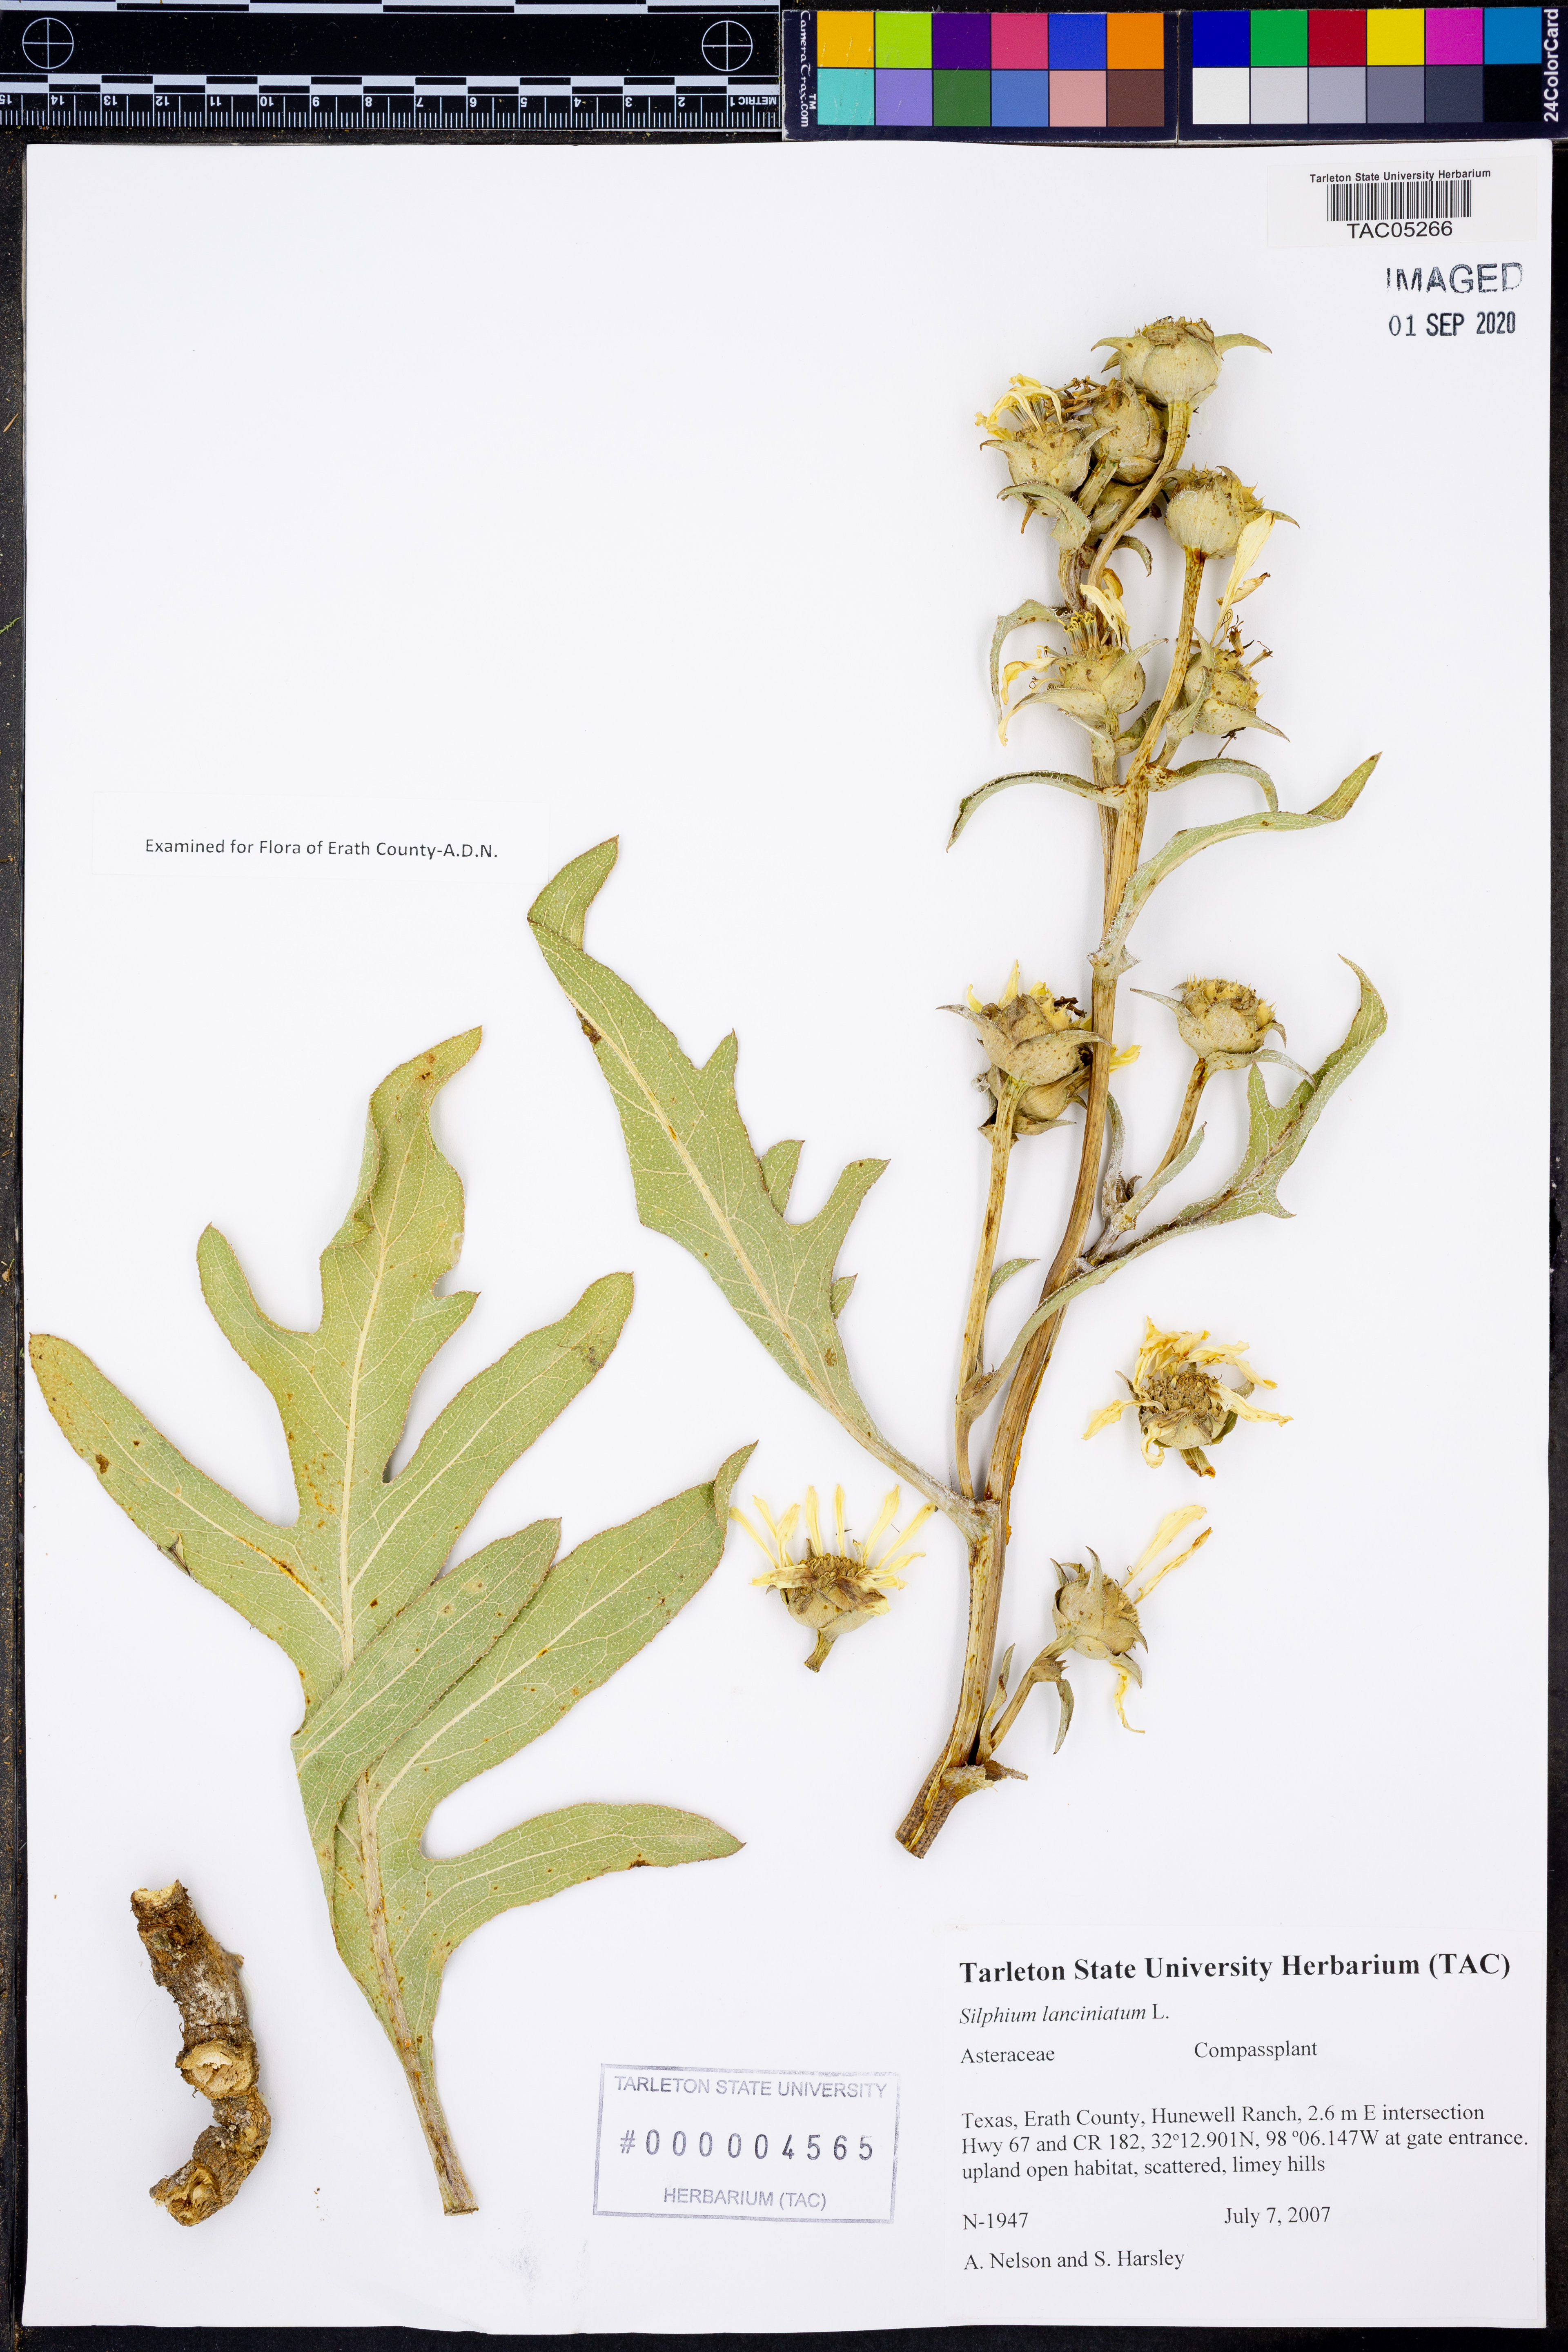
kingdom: Plantae
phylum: Tracheophyta
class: Magnoliopsida
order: Asterales
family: Asteraceae
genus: Silphium
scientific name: Silphium laciniatum
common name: Polarplant
